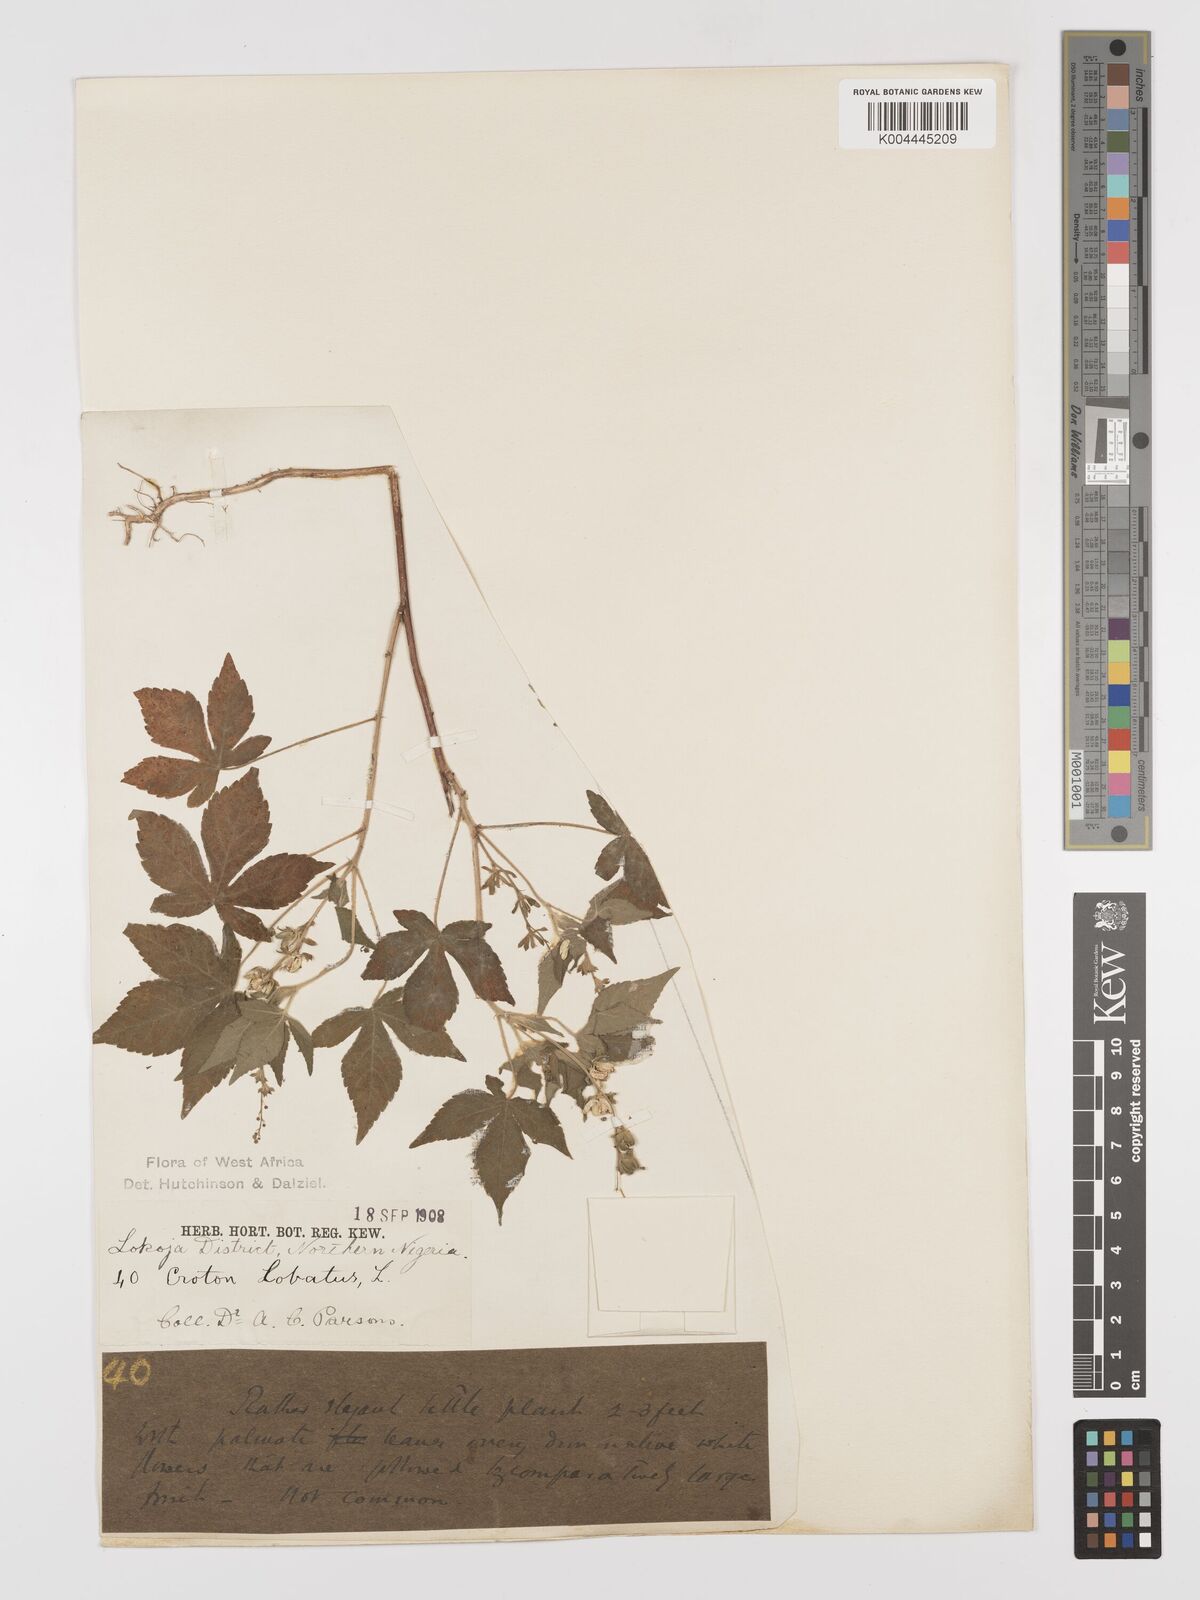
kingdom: Plantae
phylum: Tracheophyta
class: Magnoliopsida
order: Malpighiales
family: Euphorbiaceae
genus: Astraea
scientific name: Astraea lobata
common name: Lobed croton
